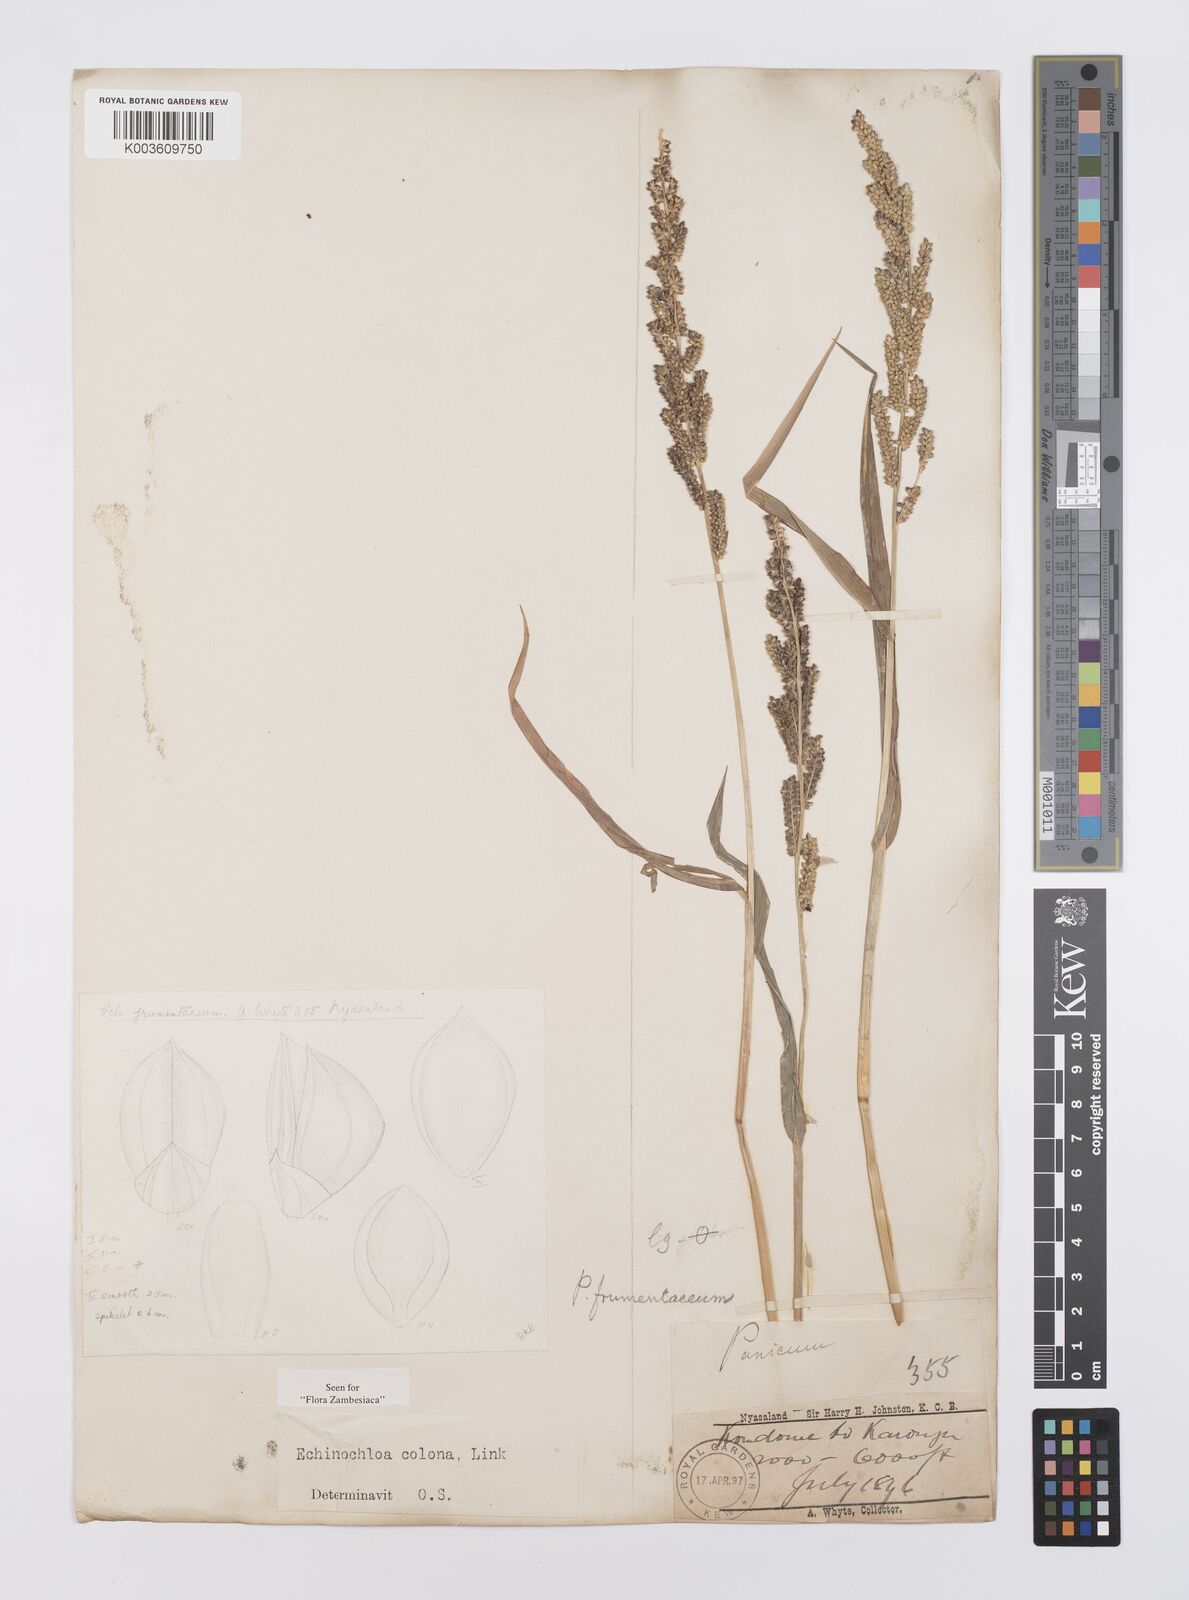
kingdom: Plantae
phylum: Tracheophyta
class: Liliopsida
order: Poales
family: Poaceae
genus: Echinochloa
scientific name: Echinochloa colonum
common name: Jungle rice
